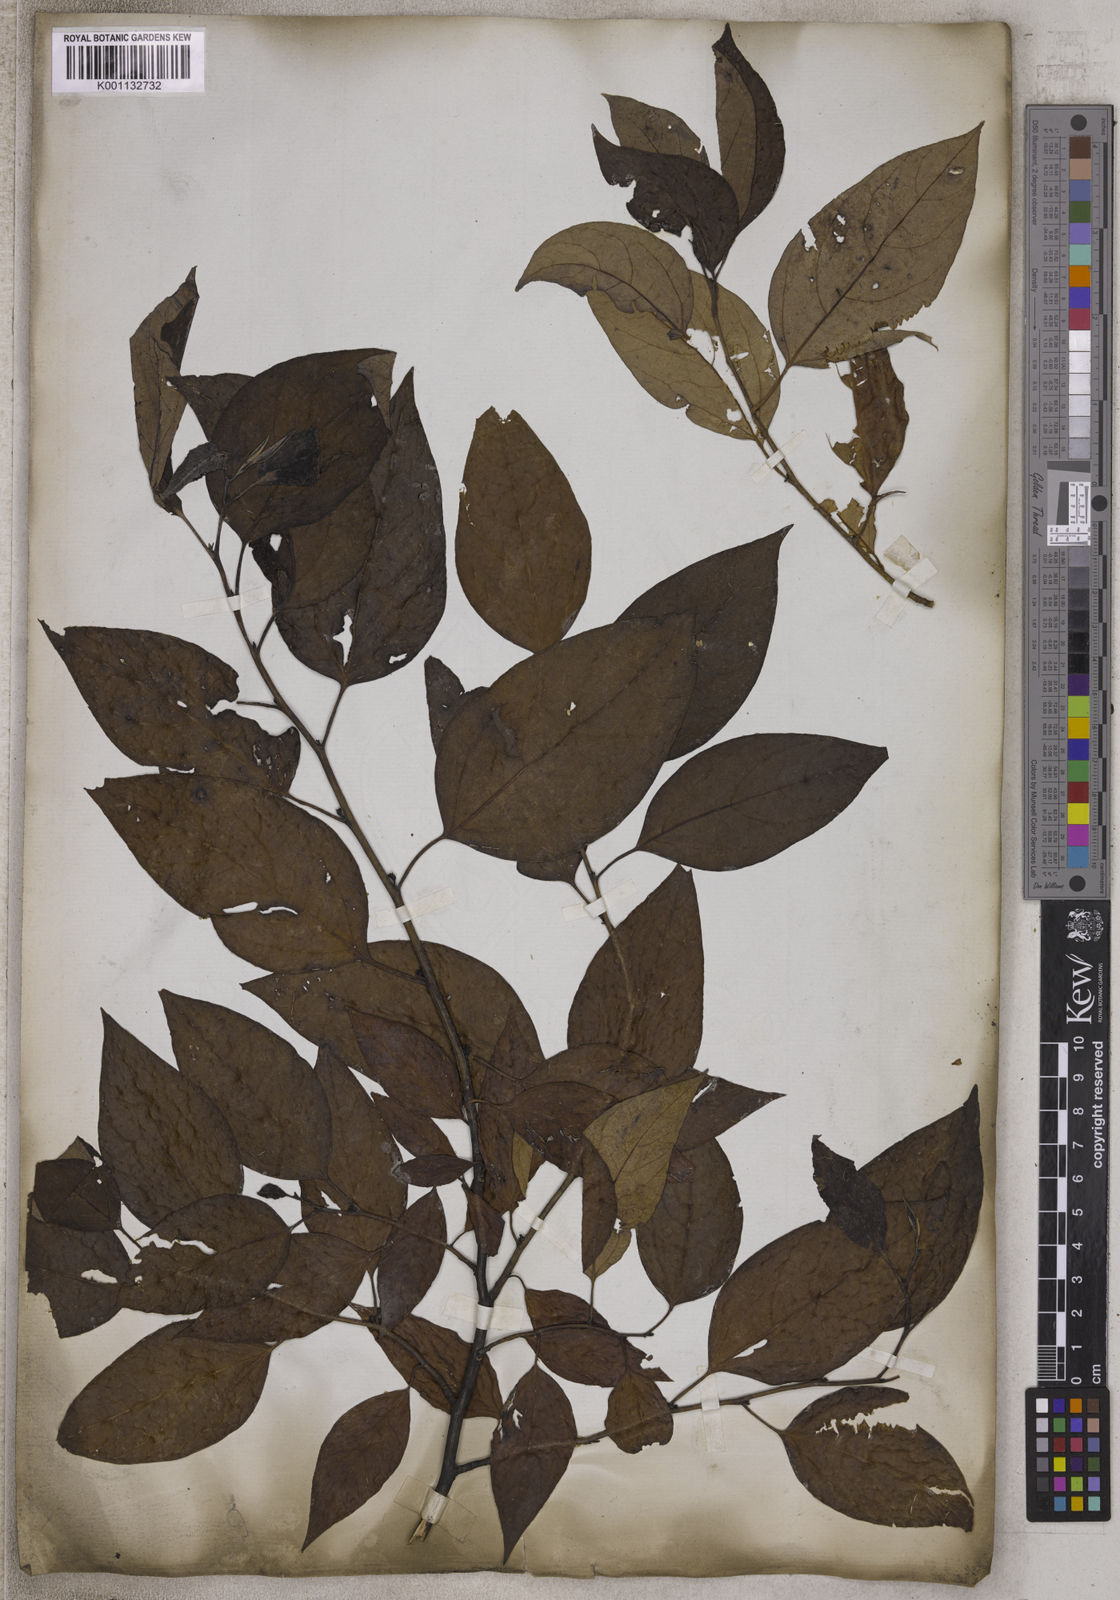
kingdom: Plantae
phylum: Tracheophyta
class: Magnoliopsida
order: Laurales
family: Lauraceae
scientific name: Lauraceae
